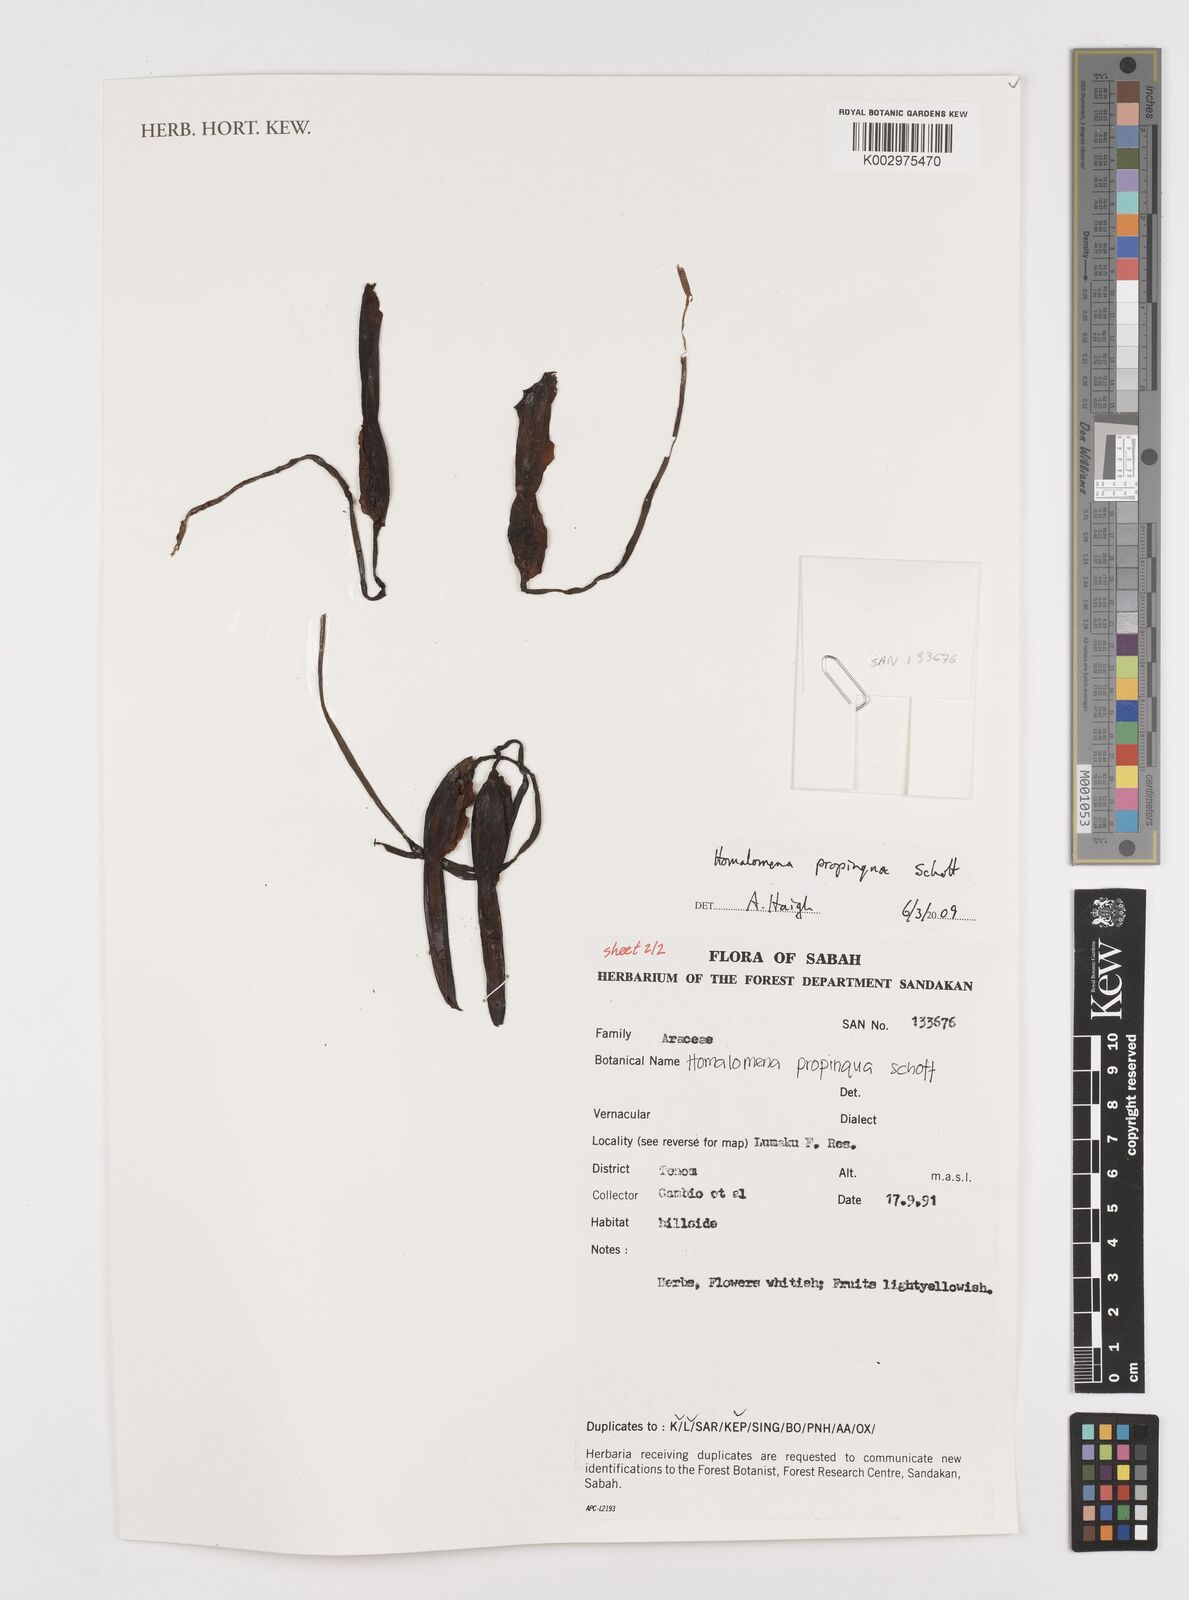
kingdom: Plantae
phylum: Tracheophyta
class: Liliopsida
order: Alismatales
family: Araceae
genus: Homalomena
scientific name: Homalomena humilis
